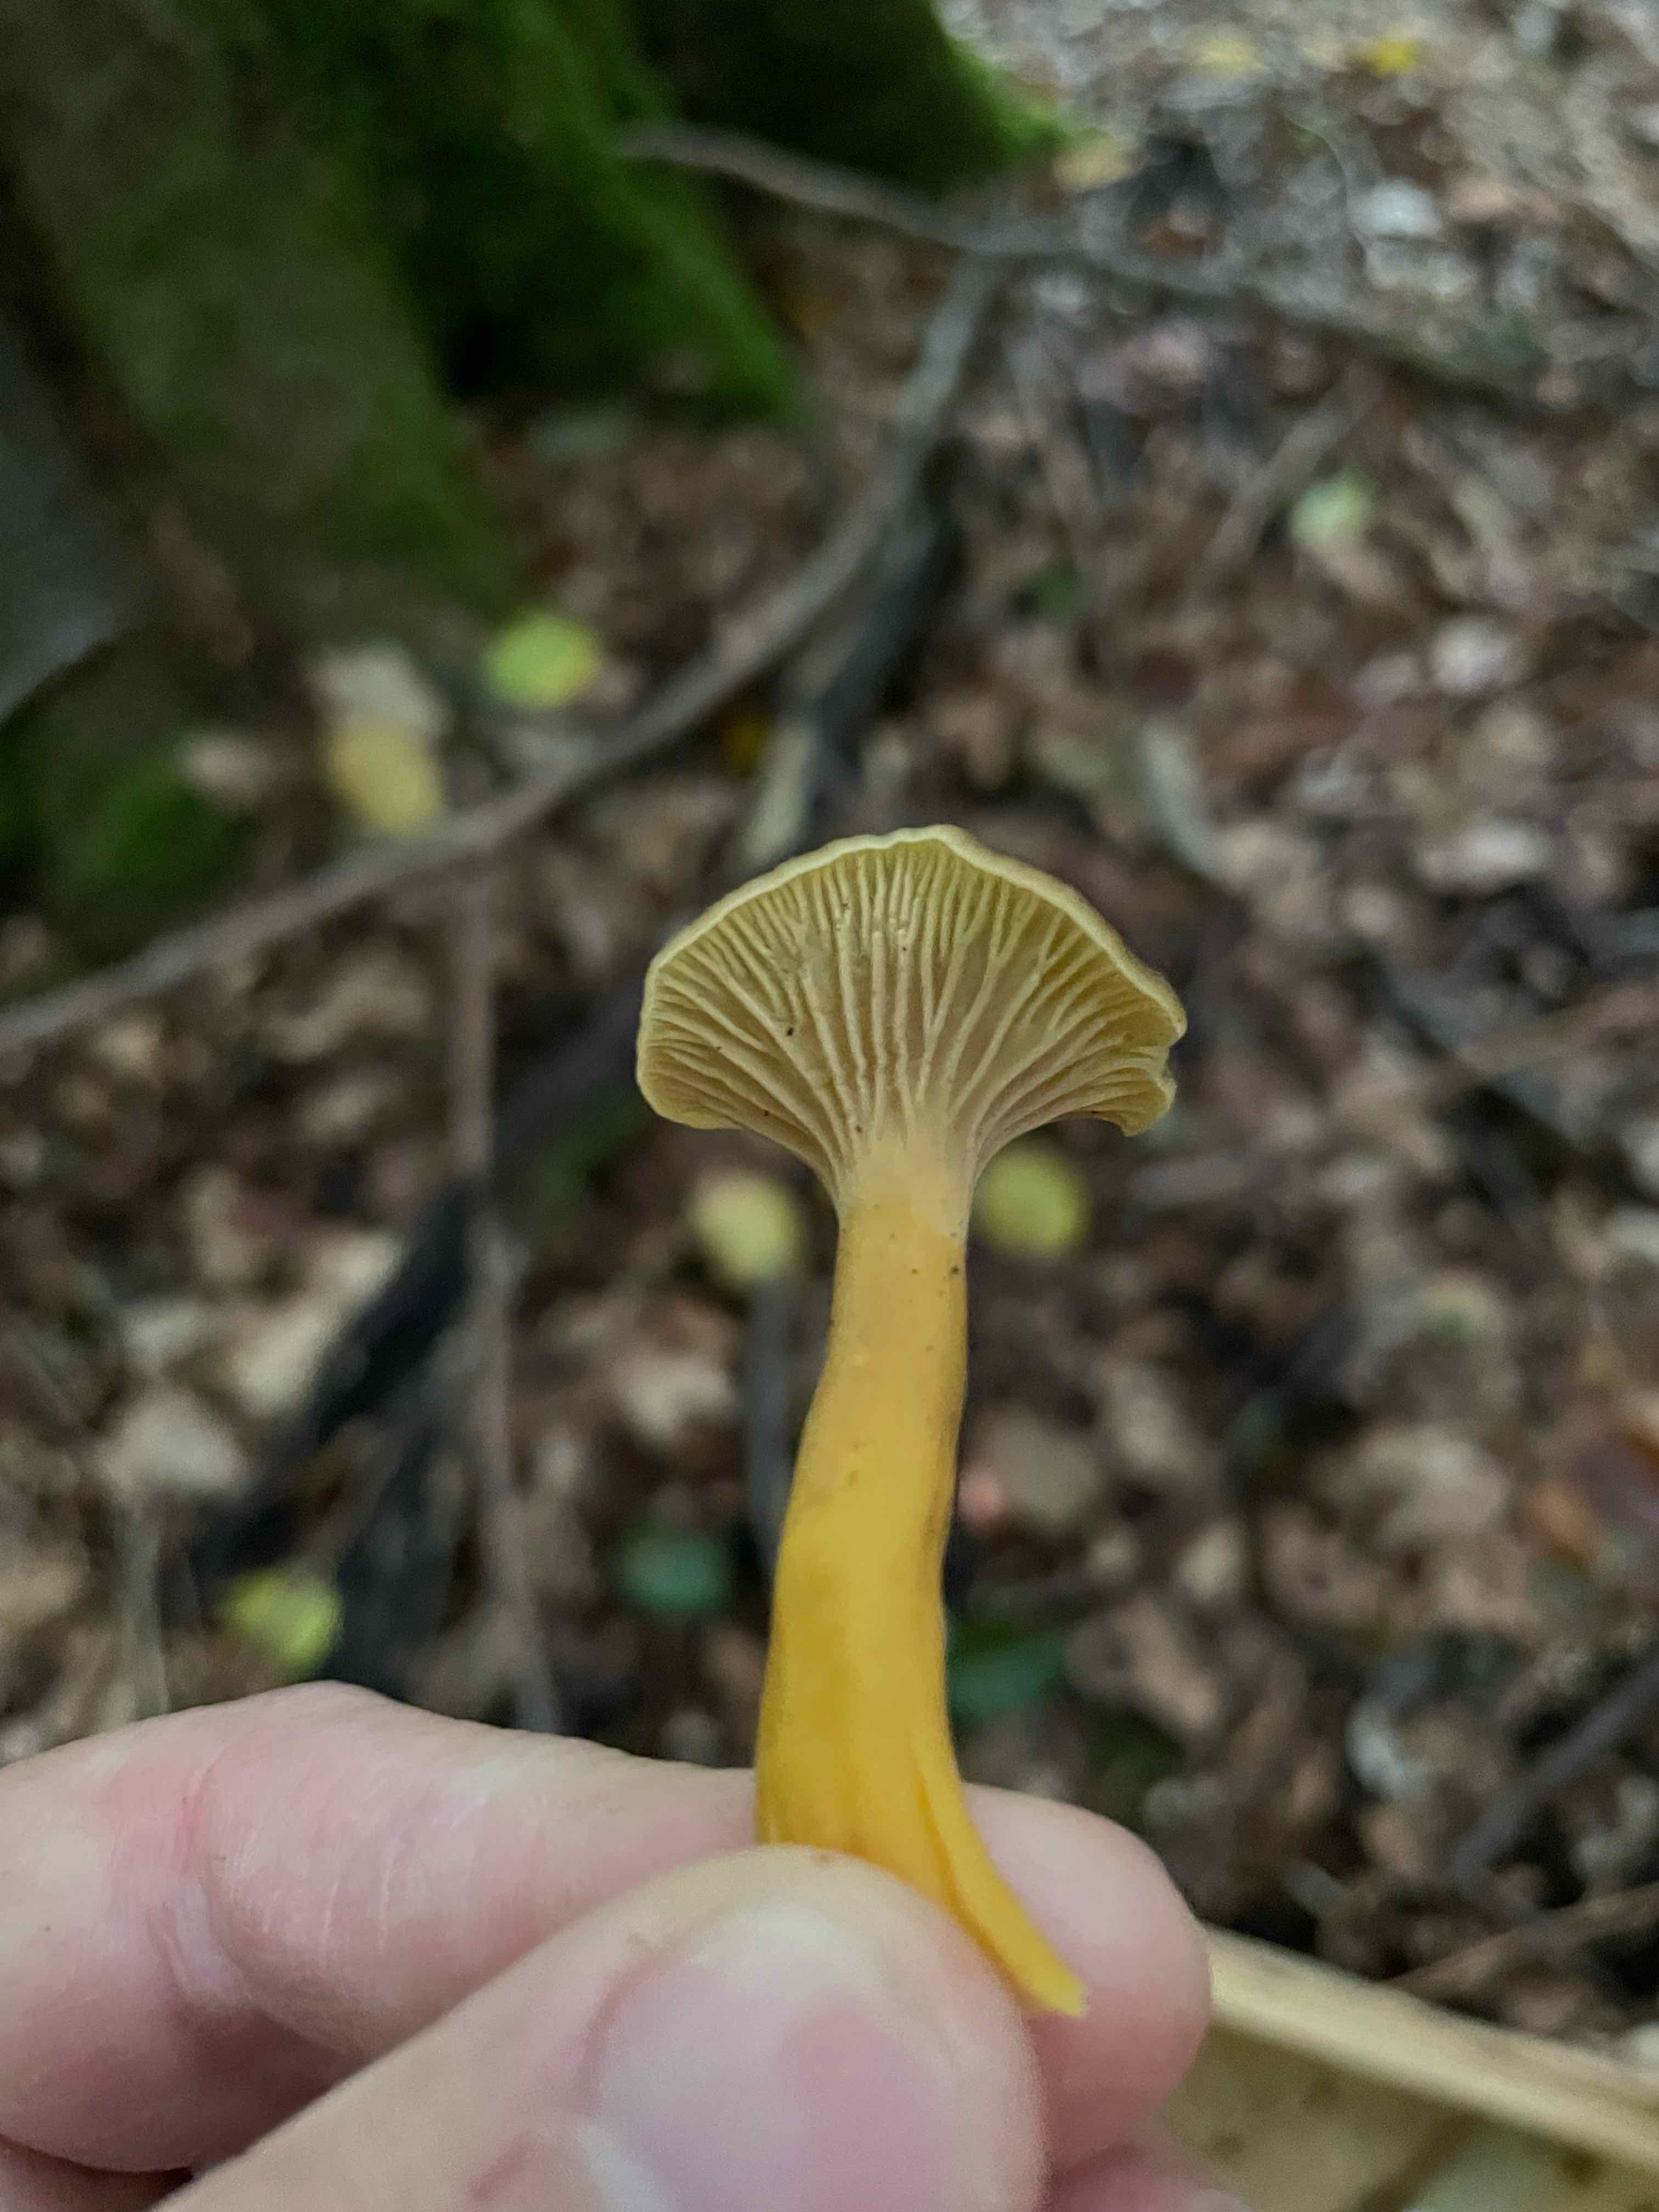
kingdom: Fungi
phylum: Basidiomycota
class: Agaricomycetes
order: Cantharellales
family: Hydnaceae
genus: Craterellus
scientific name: Craterellus tubaeformis
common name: tragt-kantarel
